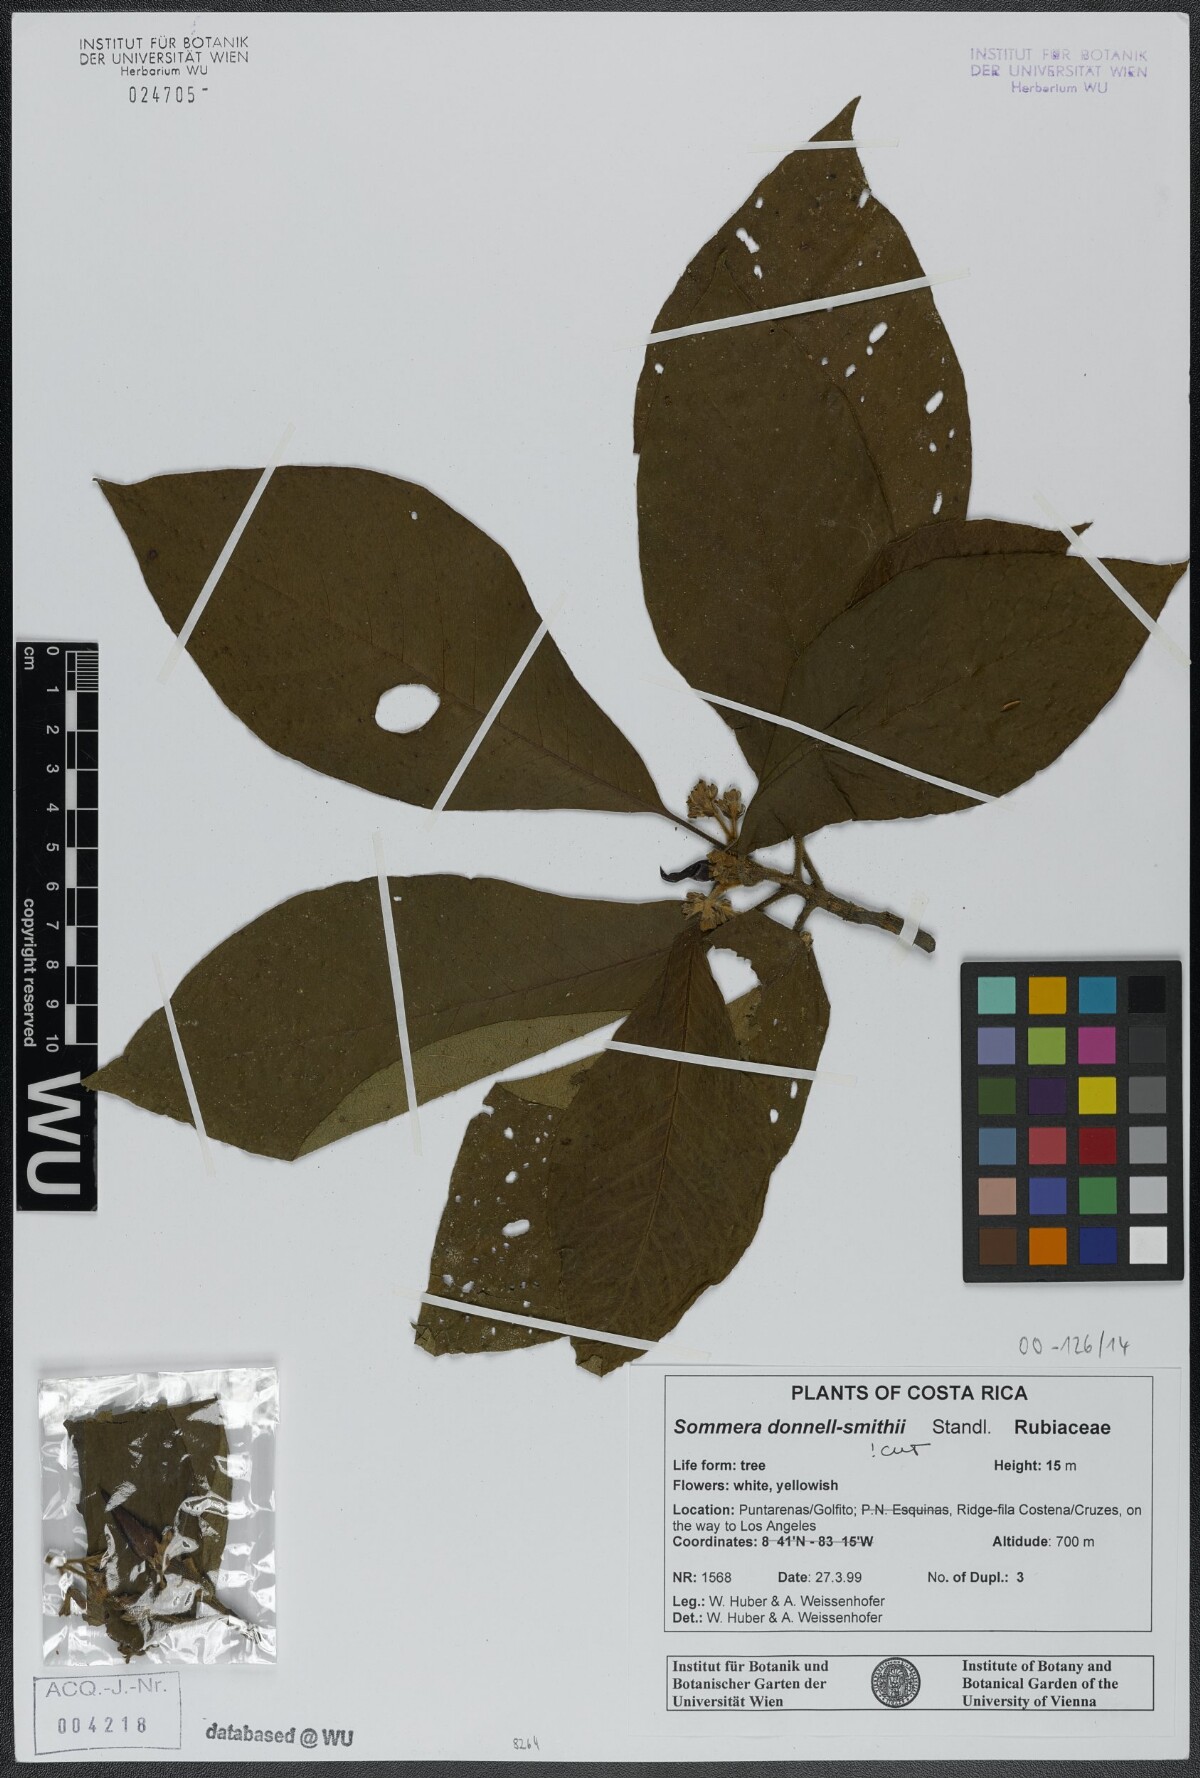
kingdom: Plantae
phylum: Tracheophyta
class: Magnoliopsida
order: Gentianales
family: Rubiaceae
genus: Sommera
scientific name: Sommera donnell-smithii
